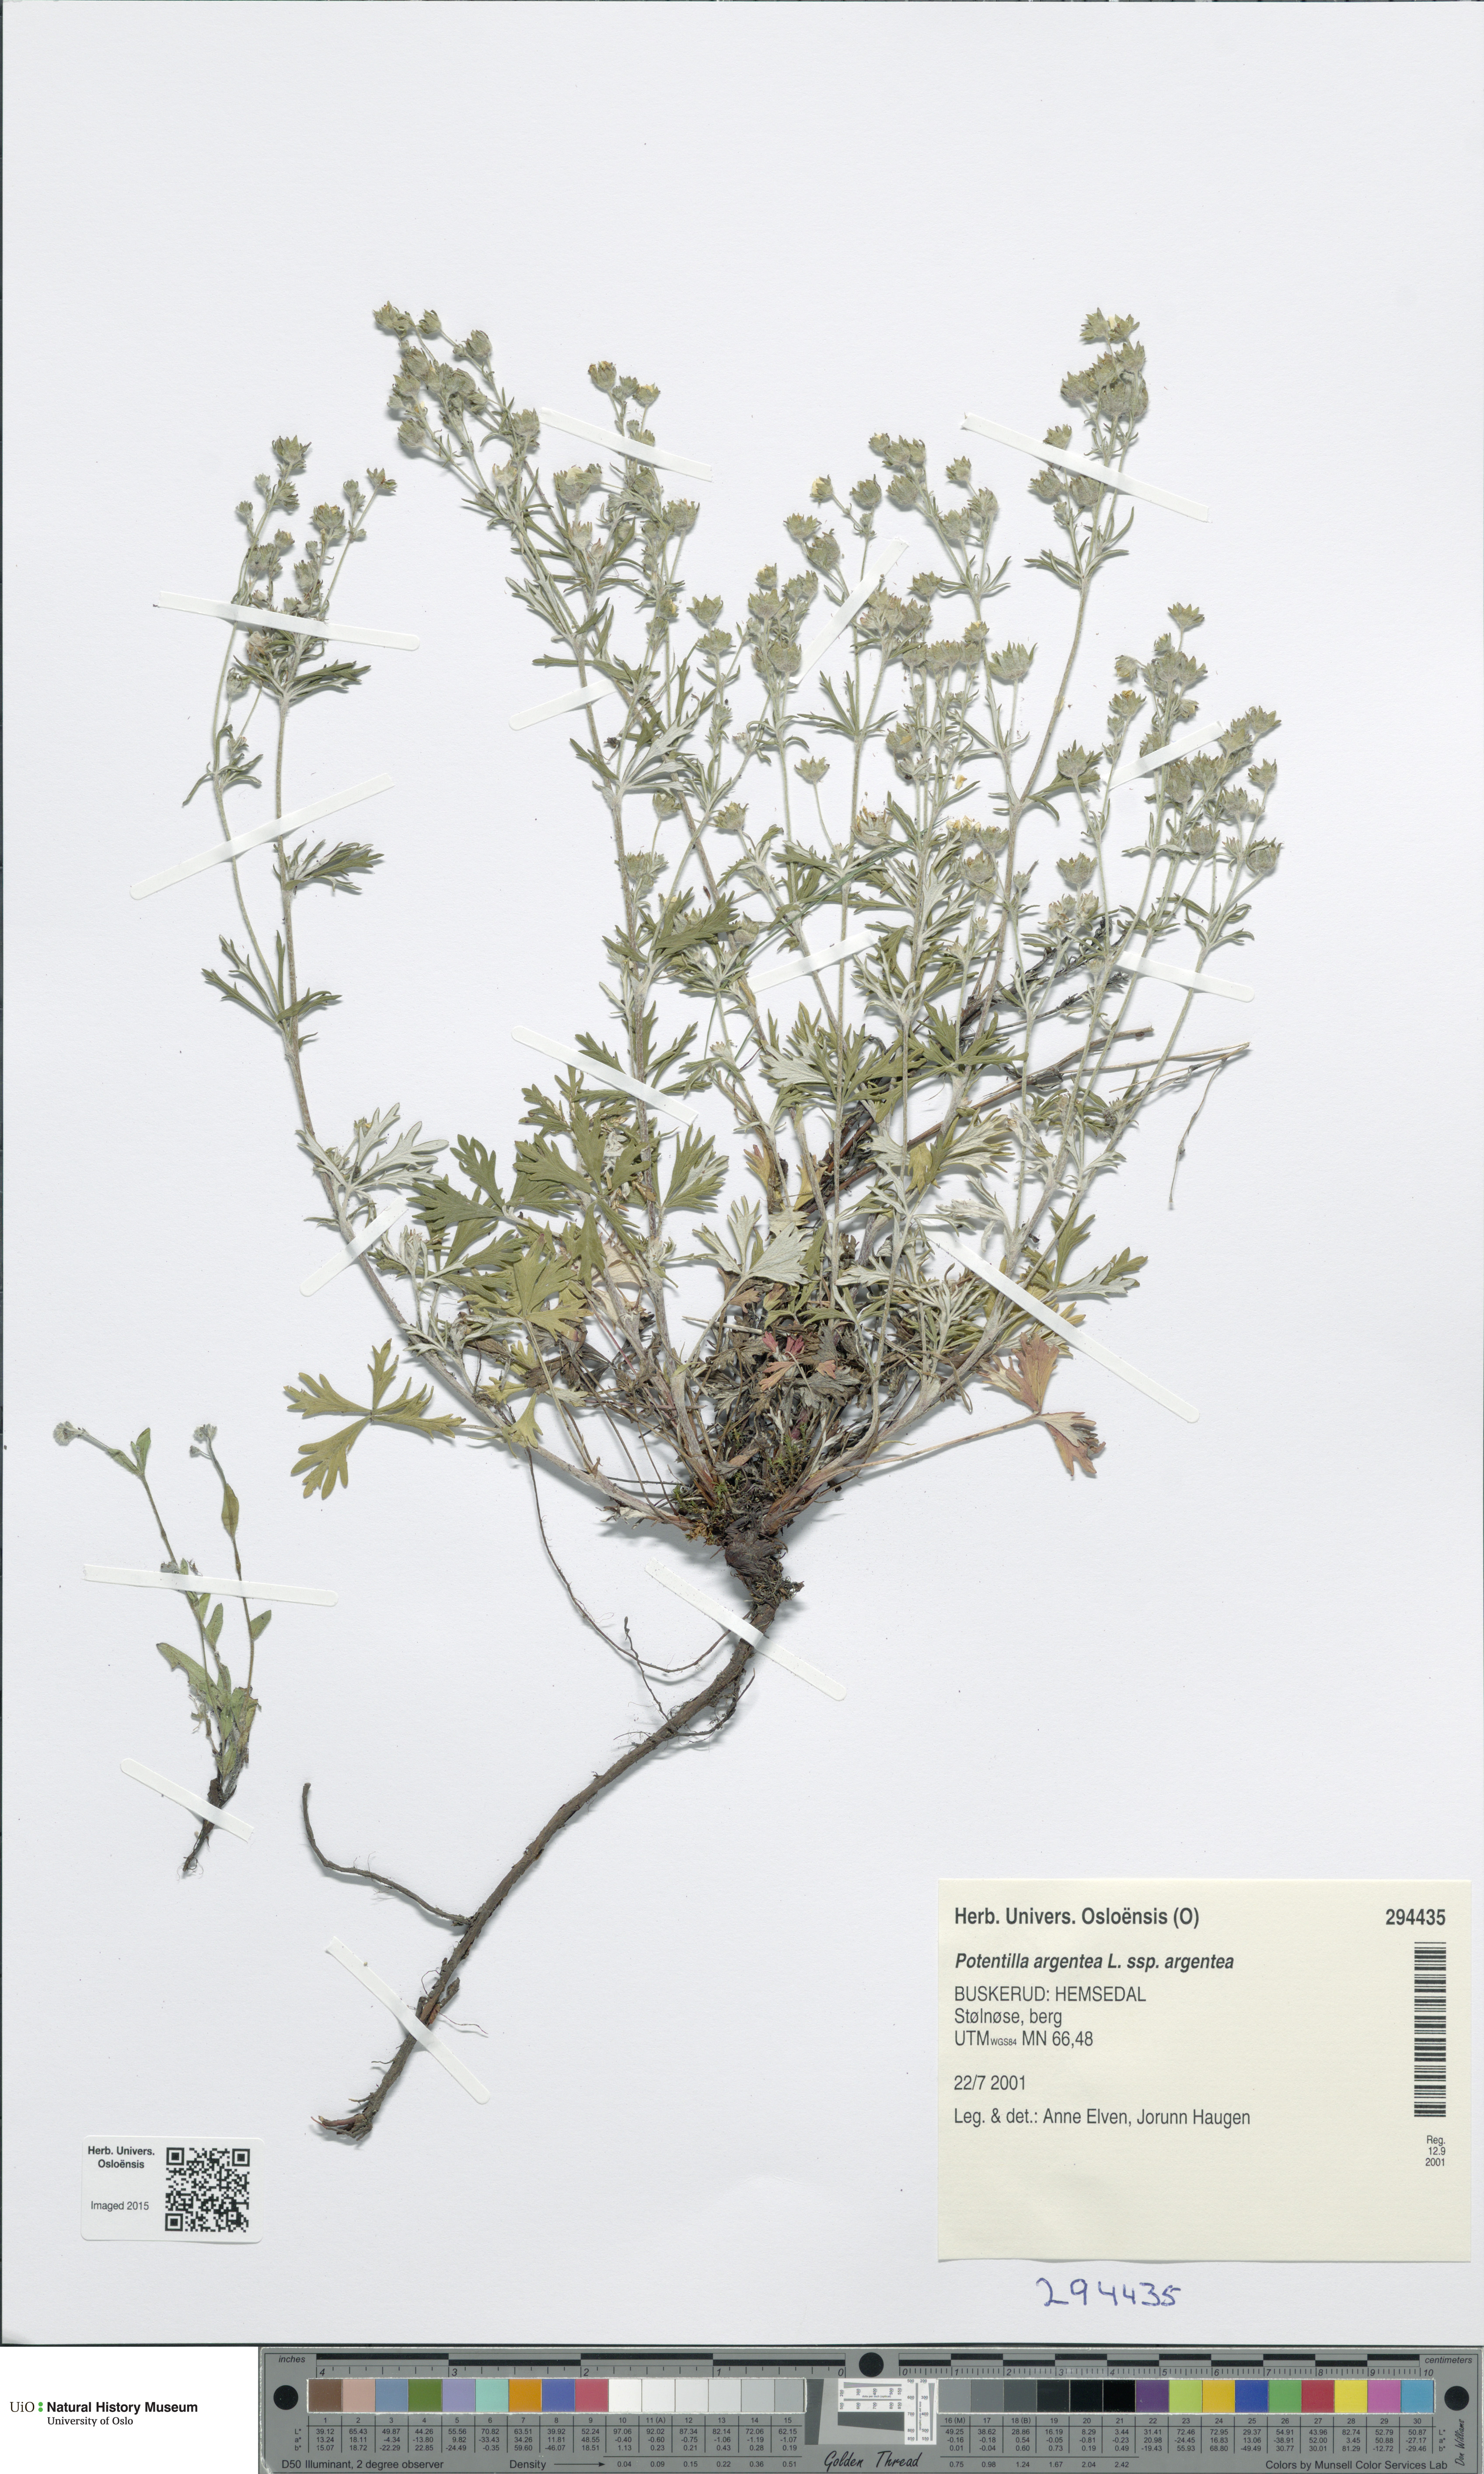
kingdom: Plantae
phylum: Tracheophyta
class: Magnoliopsida
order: Rosales
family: Rosaceae
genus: Potentilla
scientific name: Potentilla argentea
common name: Hoary cinquefoil
